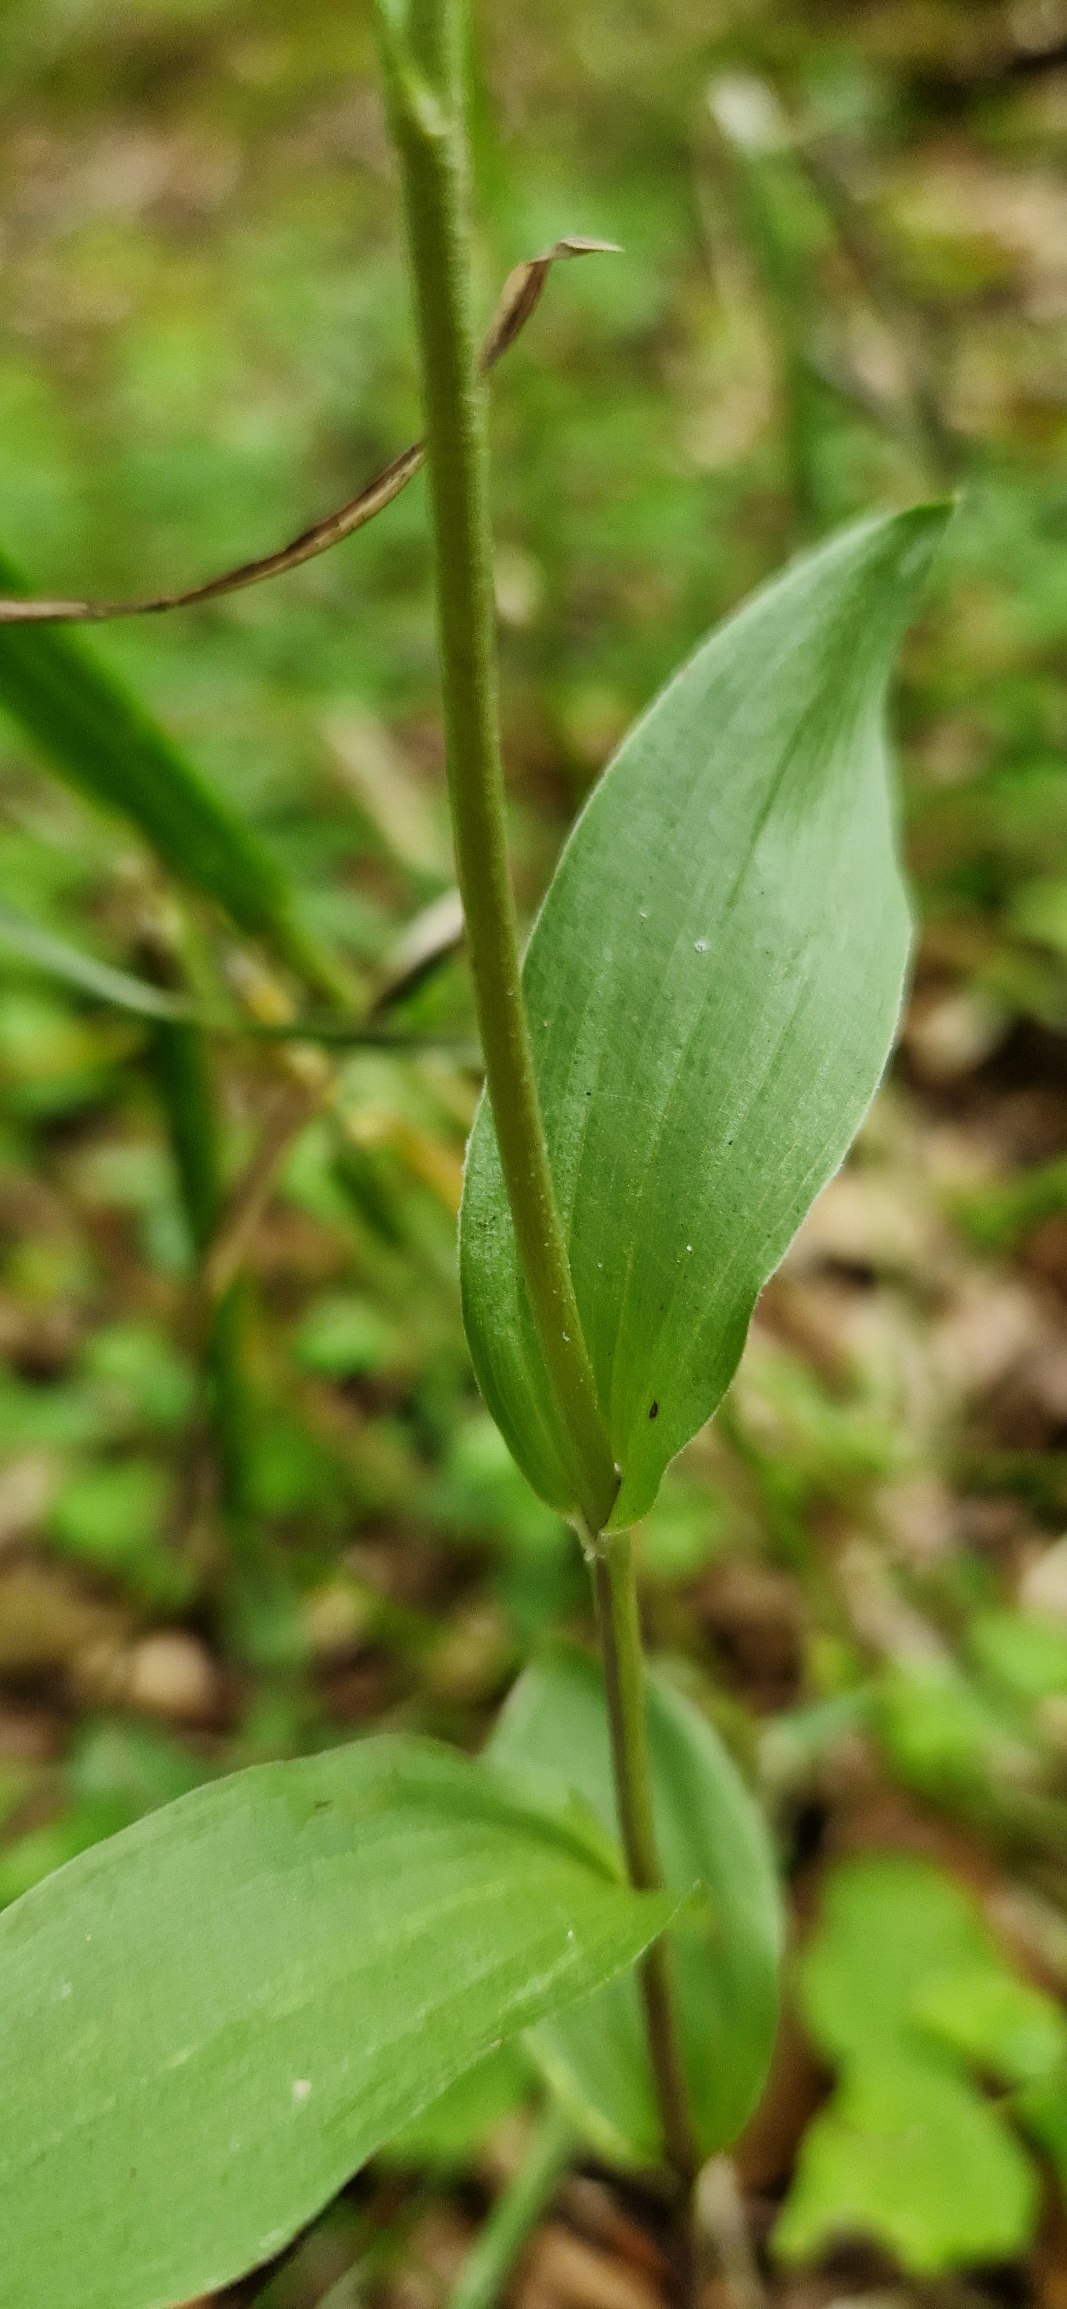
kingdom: Plantae
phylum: Tracheophyta
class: Liliopsida
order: Asparagales
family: Orchidaceae
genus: Epipactis
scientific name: Epipactis phyllanthes
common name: Nikkende hullæbe
